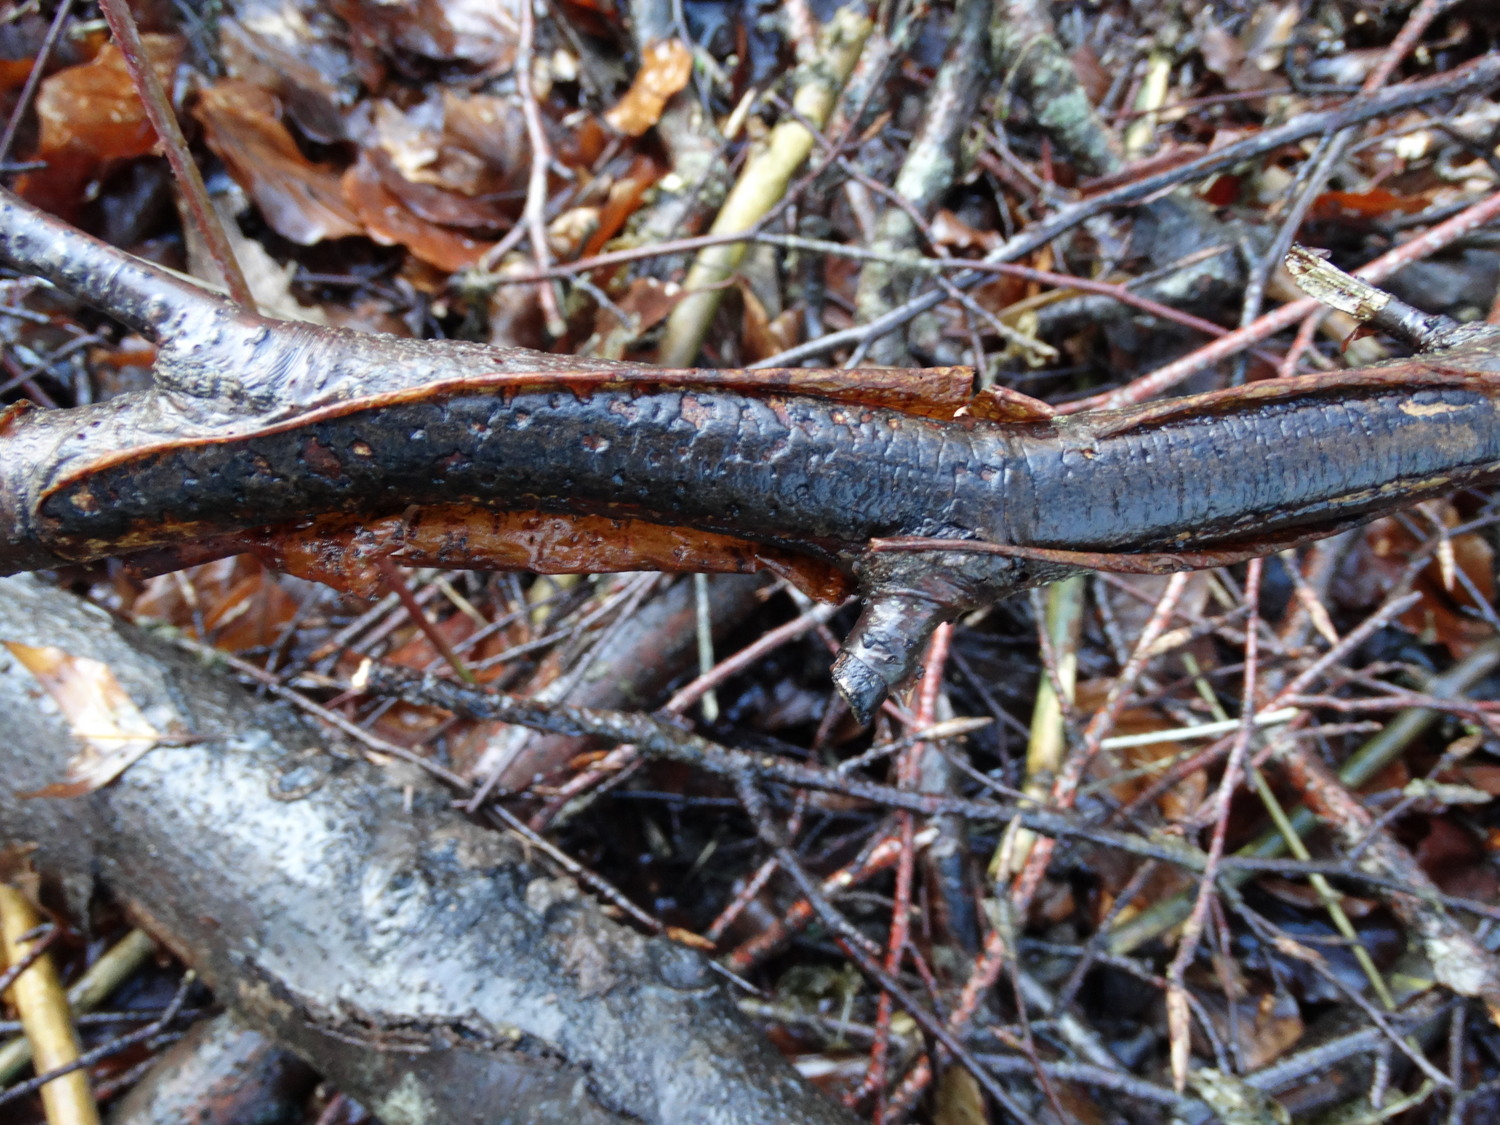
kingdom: Fungi
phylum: Ascomycota
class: Sordariomycetes
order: Xylariales
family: Diatrypaceae
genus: Diatrype
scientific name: Diatrype decorticata
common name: barksprænger-kulskorpe
